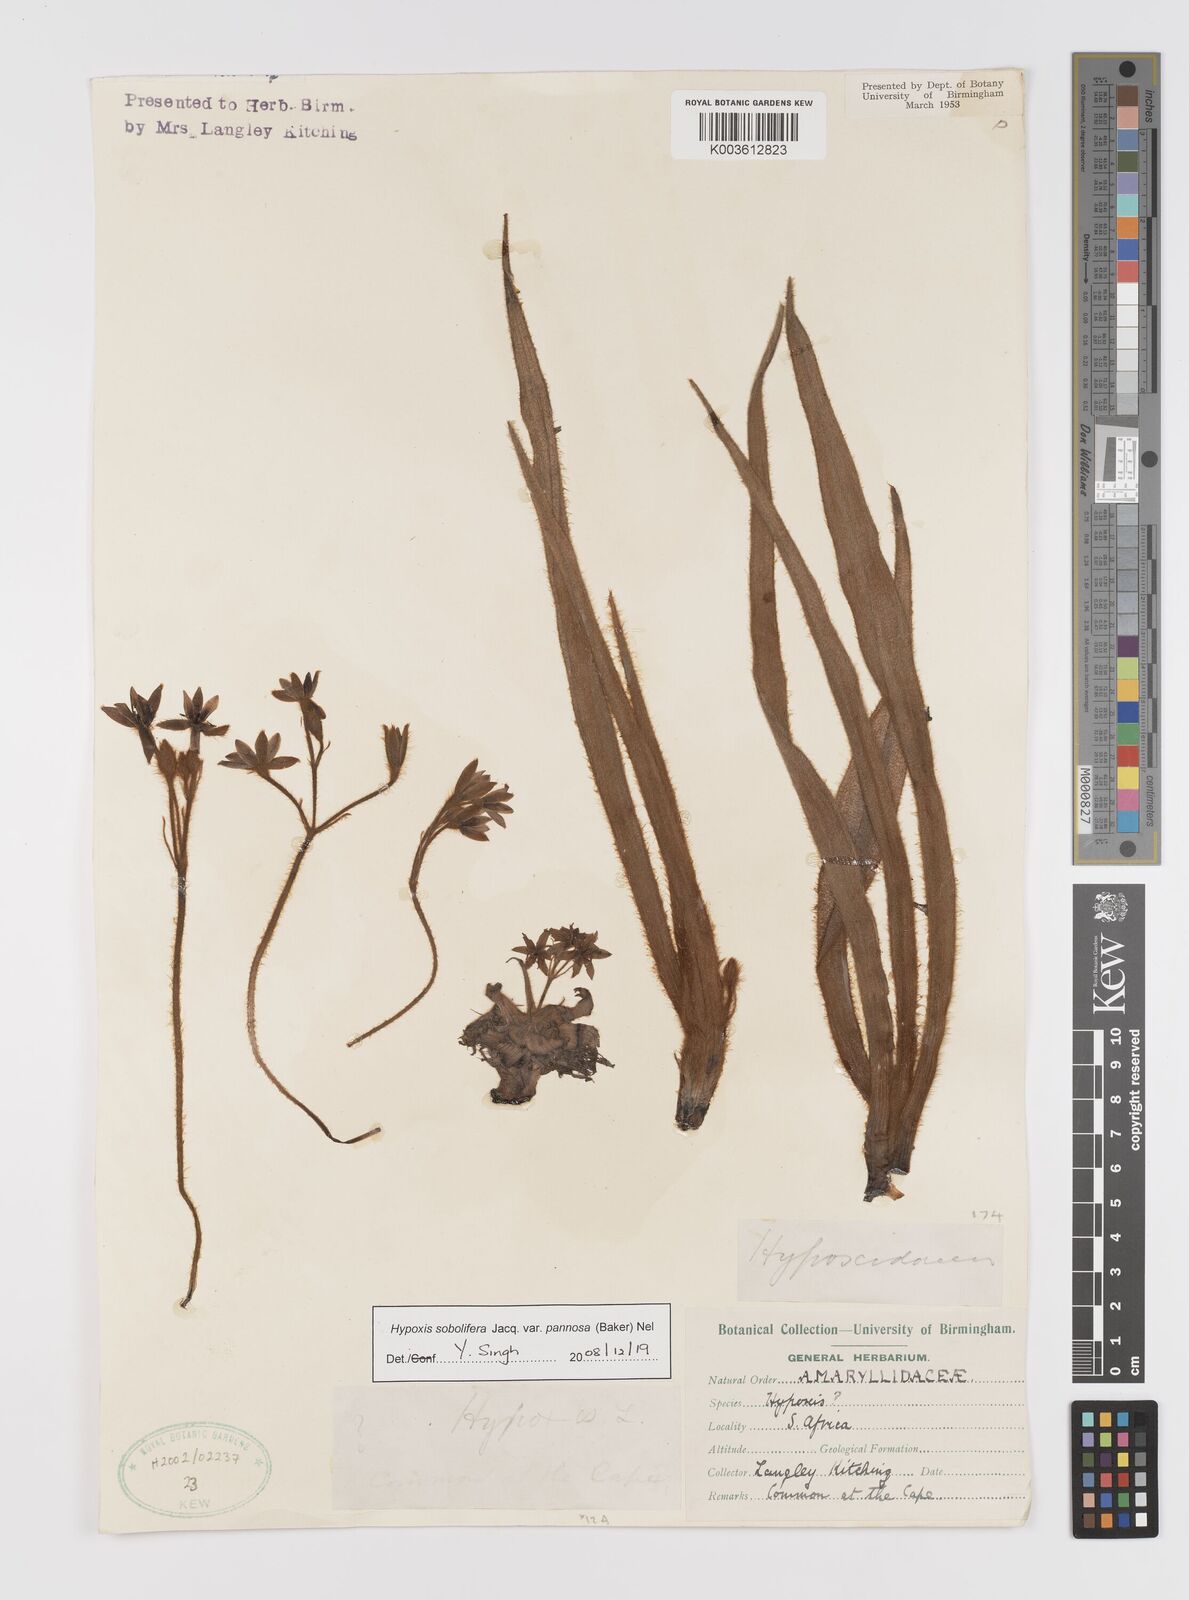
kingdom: Plantae
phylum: Tracheophyta
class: Liliopsida
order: Asparagales
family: Hypoxidaceae
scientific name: Hypoxidaceae
